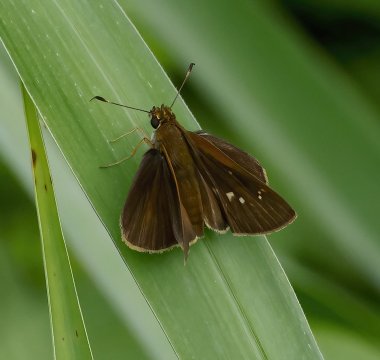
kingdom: Animalia
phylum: Arthropoda
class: Insecta
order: Lepidoptera
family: Hesperiidae
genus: Euphyes
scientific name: Euphyes vestris
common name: Dun Skipper
